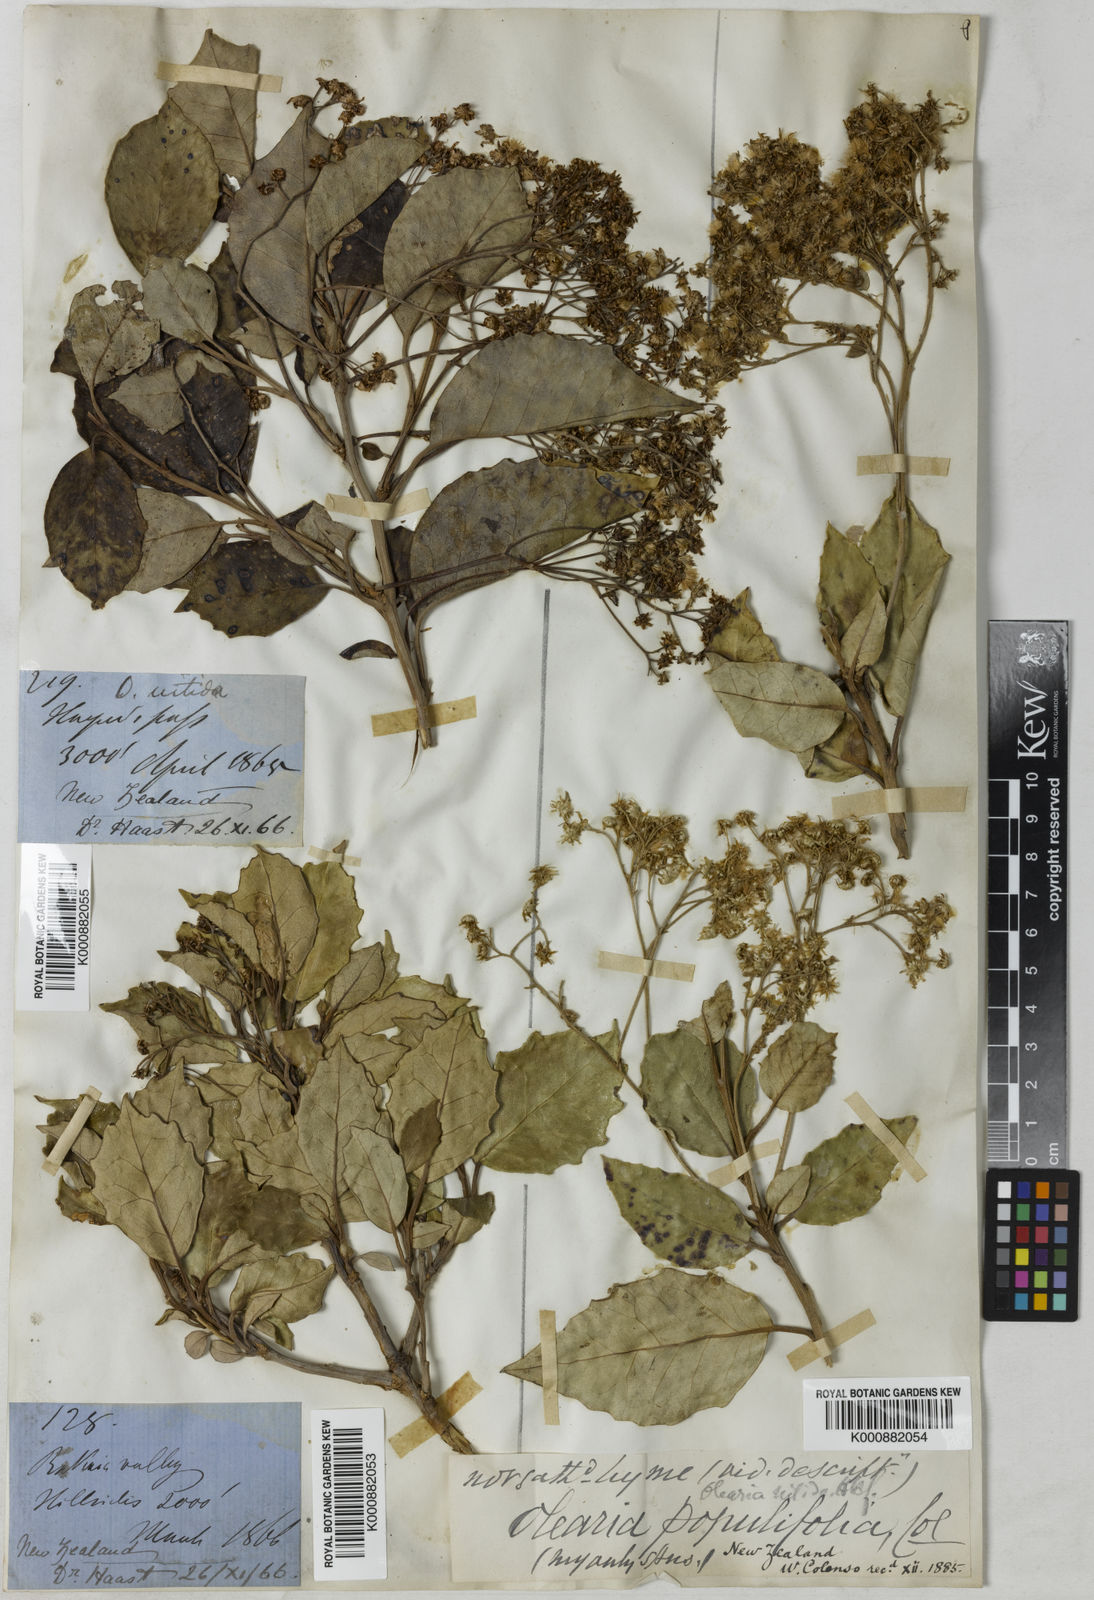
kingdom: Plantae
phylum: Tracheophyta
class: Magnoliopsida
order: Asterales
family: Asteraceae
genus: Olearia
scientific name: Olearia arborescens
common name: Glossy tree daisy
